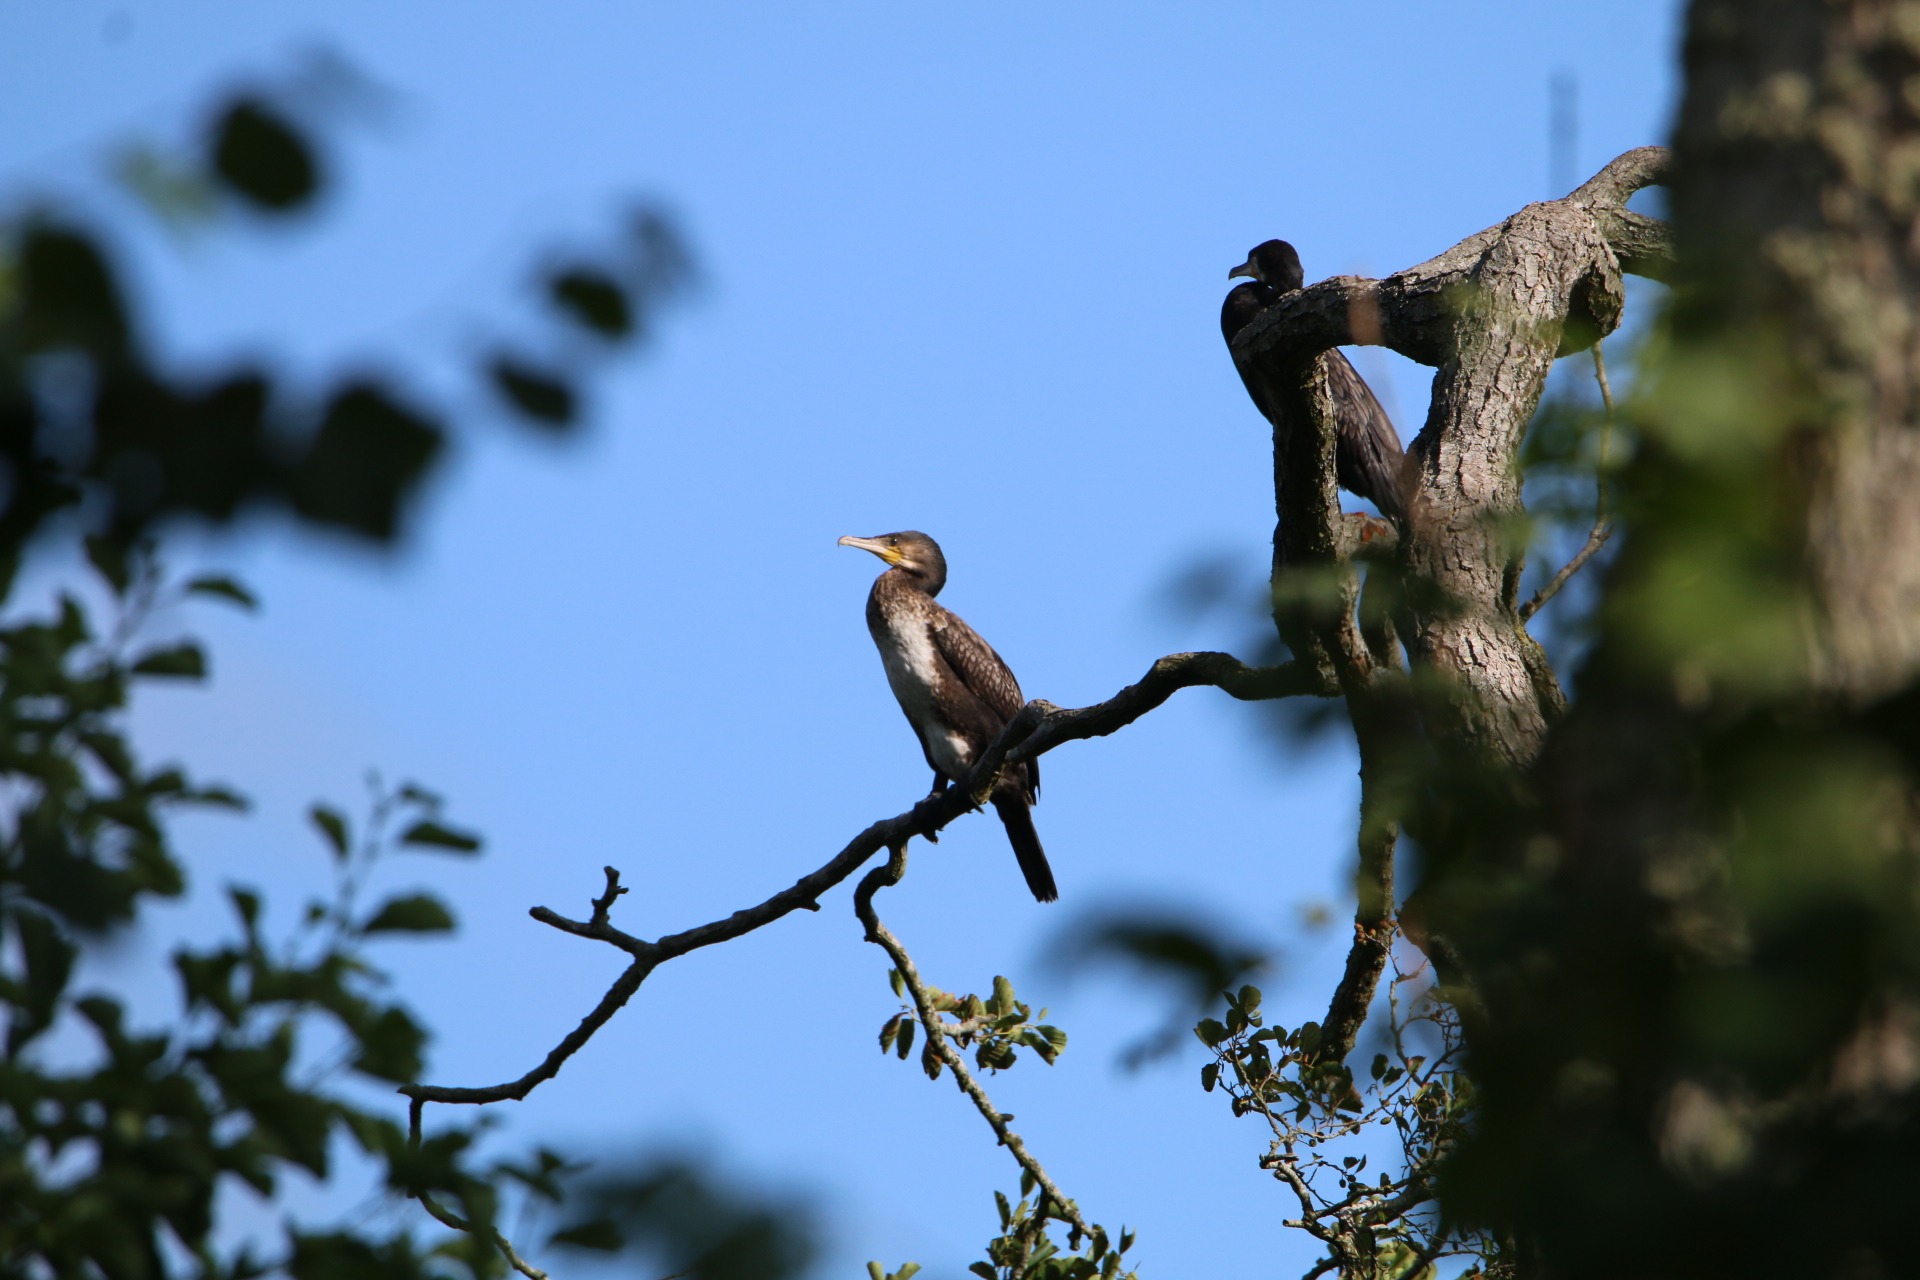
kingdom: Animalia
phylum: Chordata
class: Aves
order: Suliformes
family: Phalacrocoracidae
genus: Phalacrocorax
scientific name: Phalacrocorax carbo
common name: Skarv
